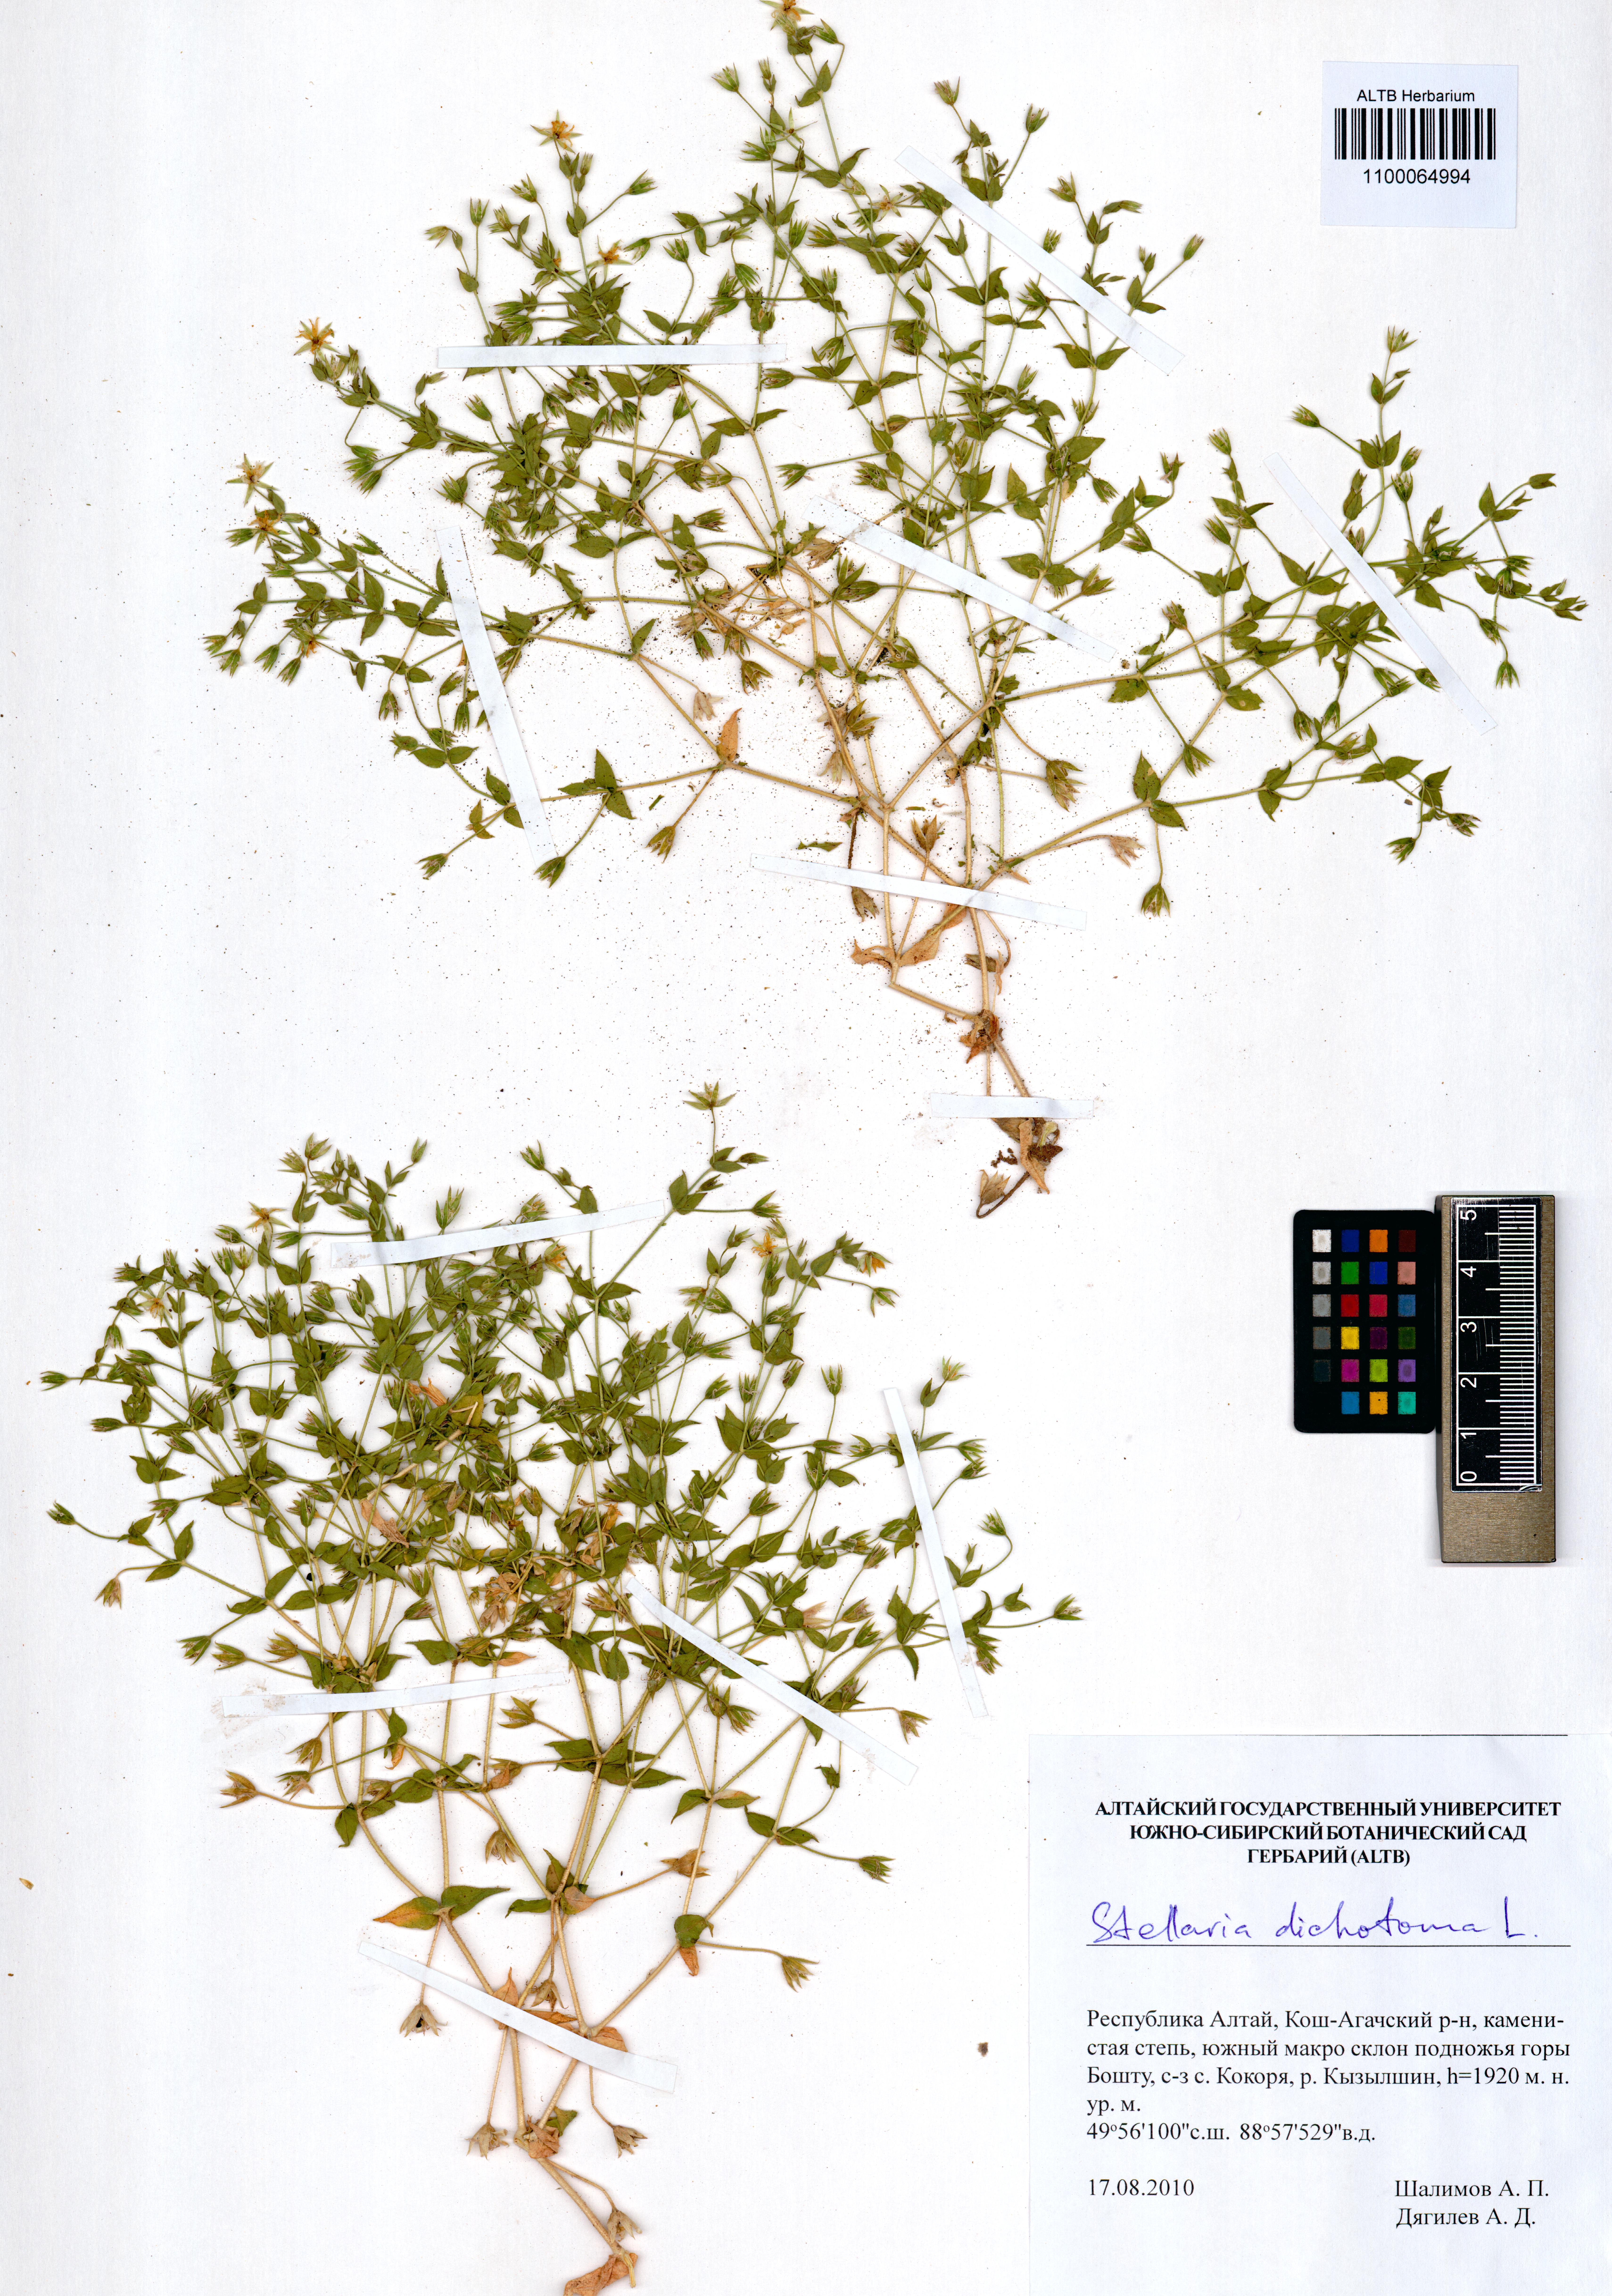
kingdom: Plantae
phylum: Tracheophyta
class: Magnoliopsida
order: Caryophyllales
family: Caryophyllaceae
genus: Mesostemma
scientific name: Mesostemma dichotomum
